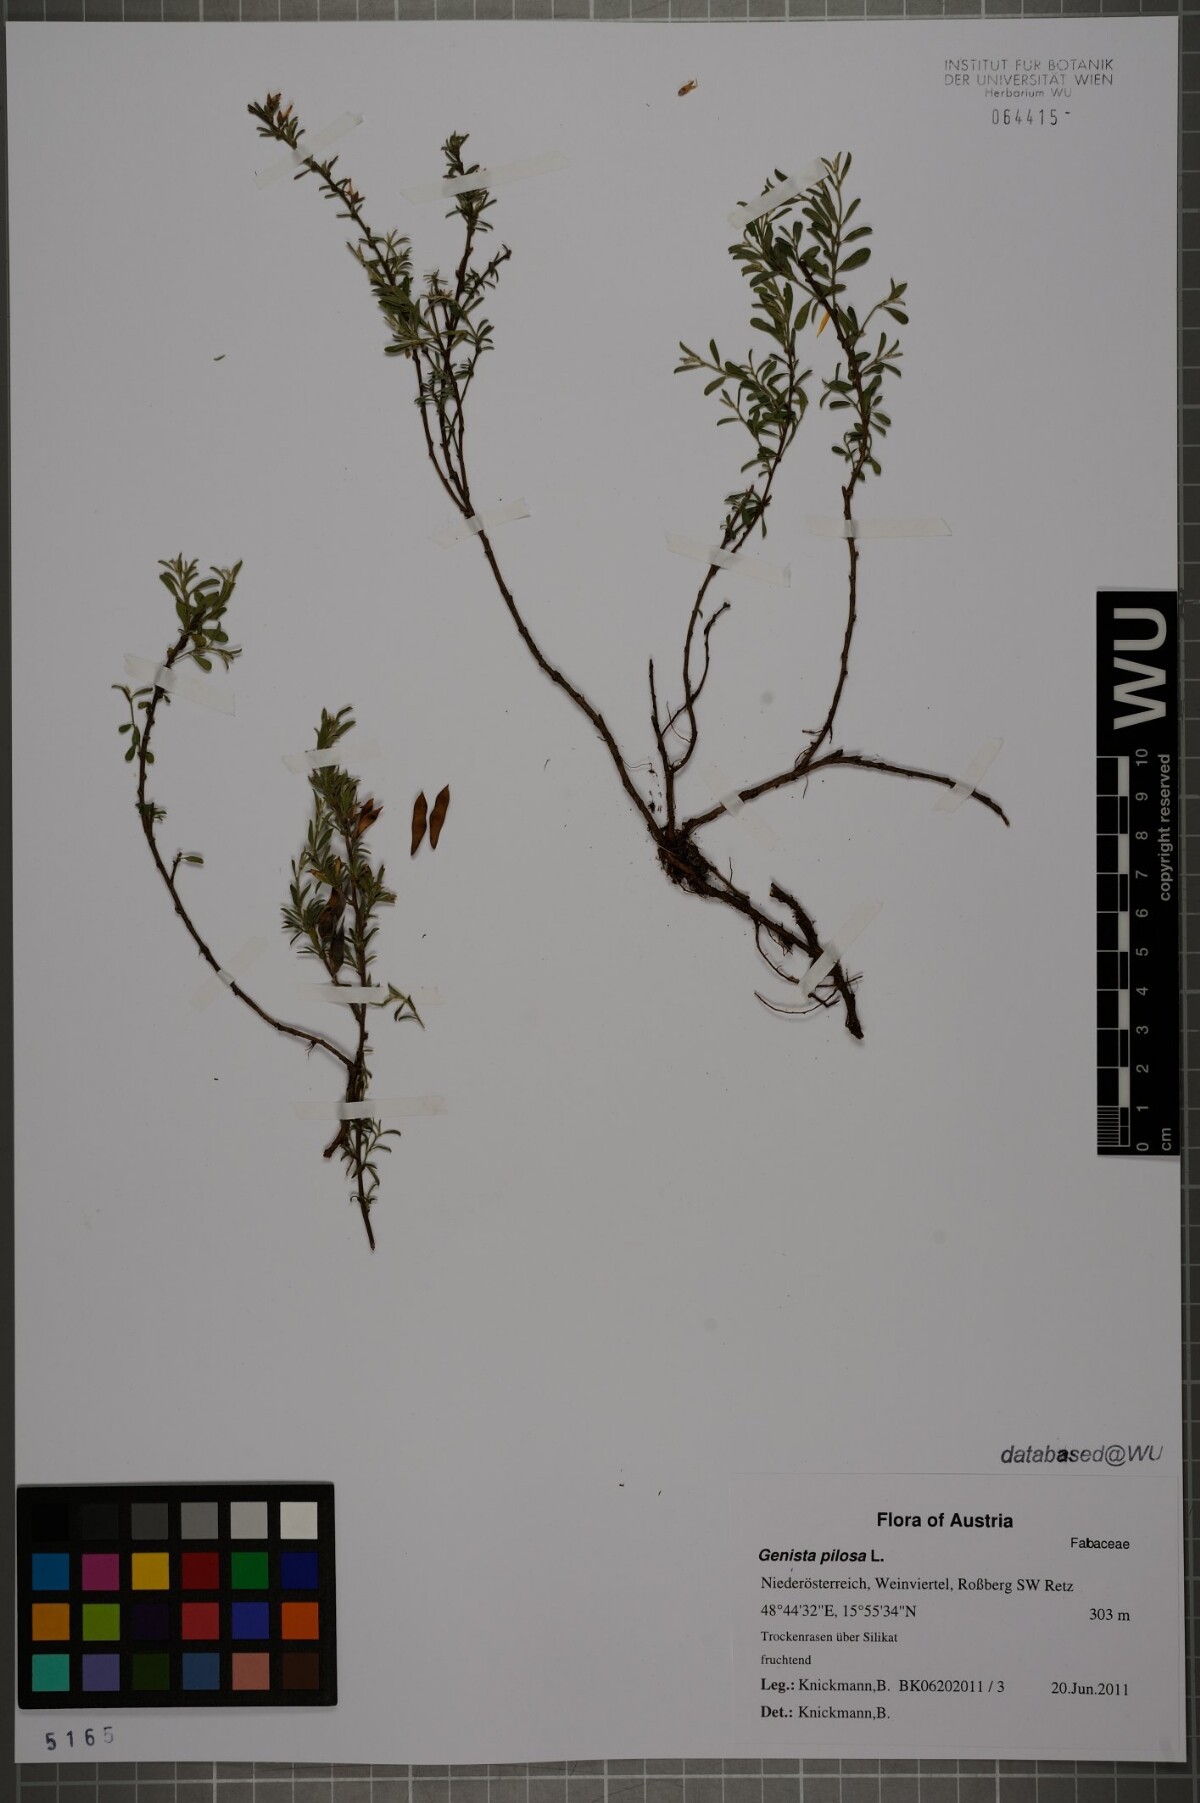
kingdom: Plantae
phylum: Tracheophyta
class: Magnoliopsida
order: Fabales
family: Fabaceae
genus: Genista
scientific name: Genista pilosa
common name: Hairy greenweed
